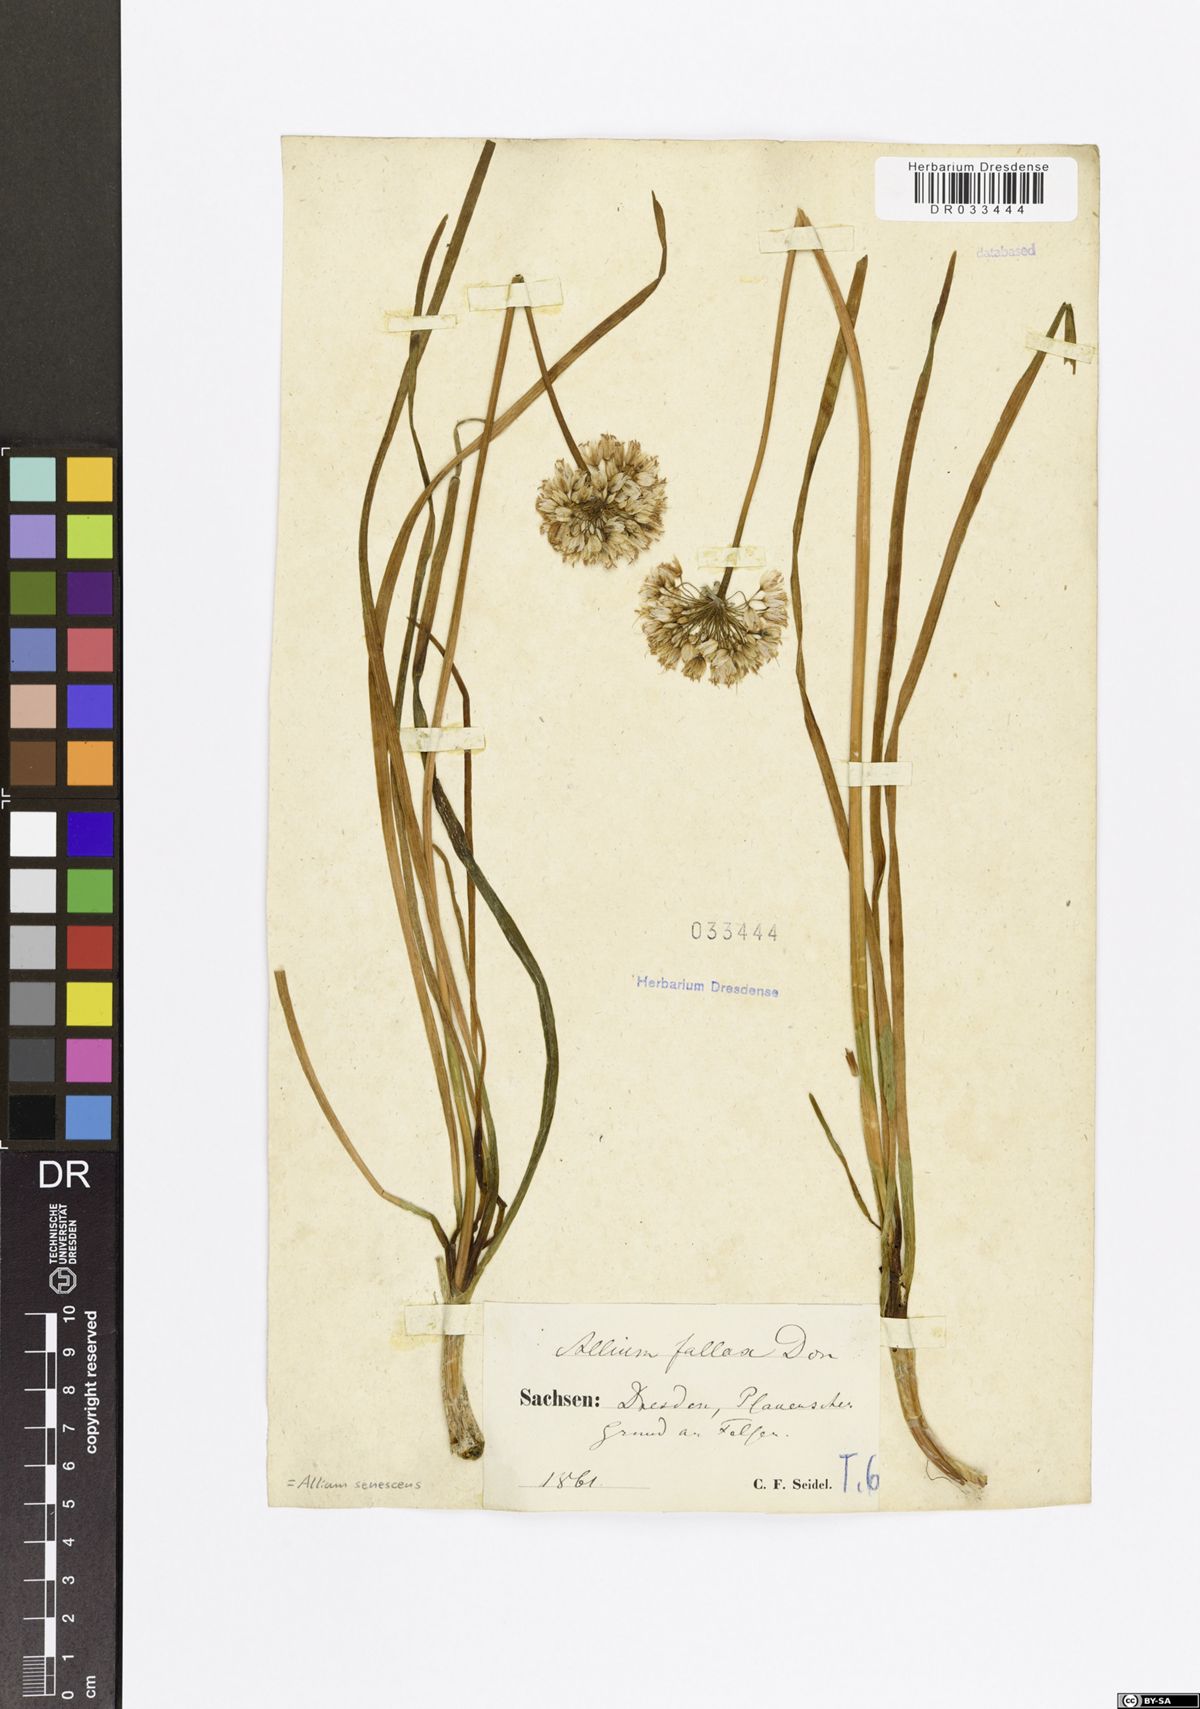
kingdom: Plantae
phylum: Tracheophyta
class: Liliopsida
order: Asparagales
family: Amaryllidaceae
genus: Allium
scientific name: Allium senescens
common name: German garlic
